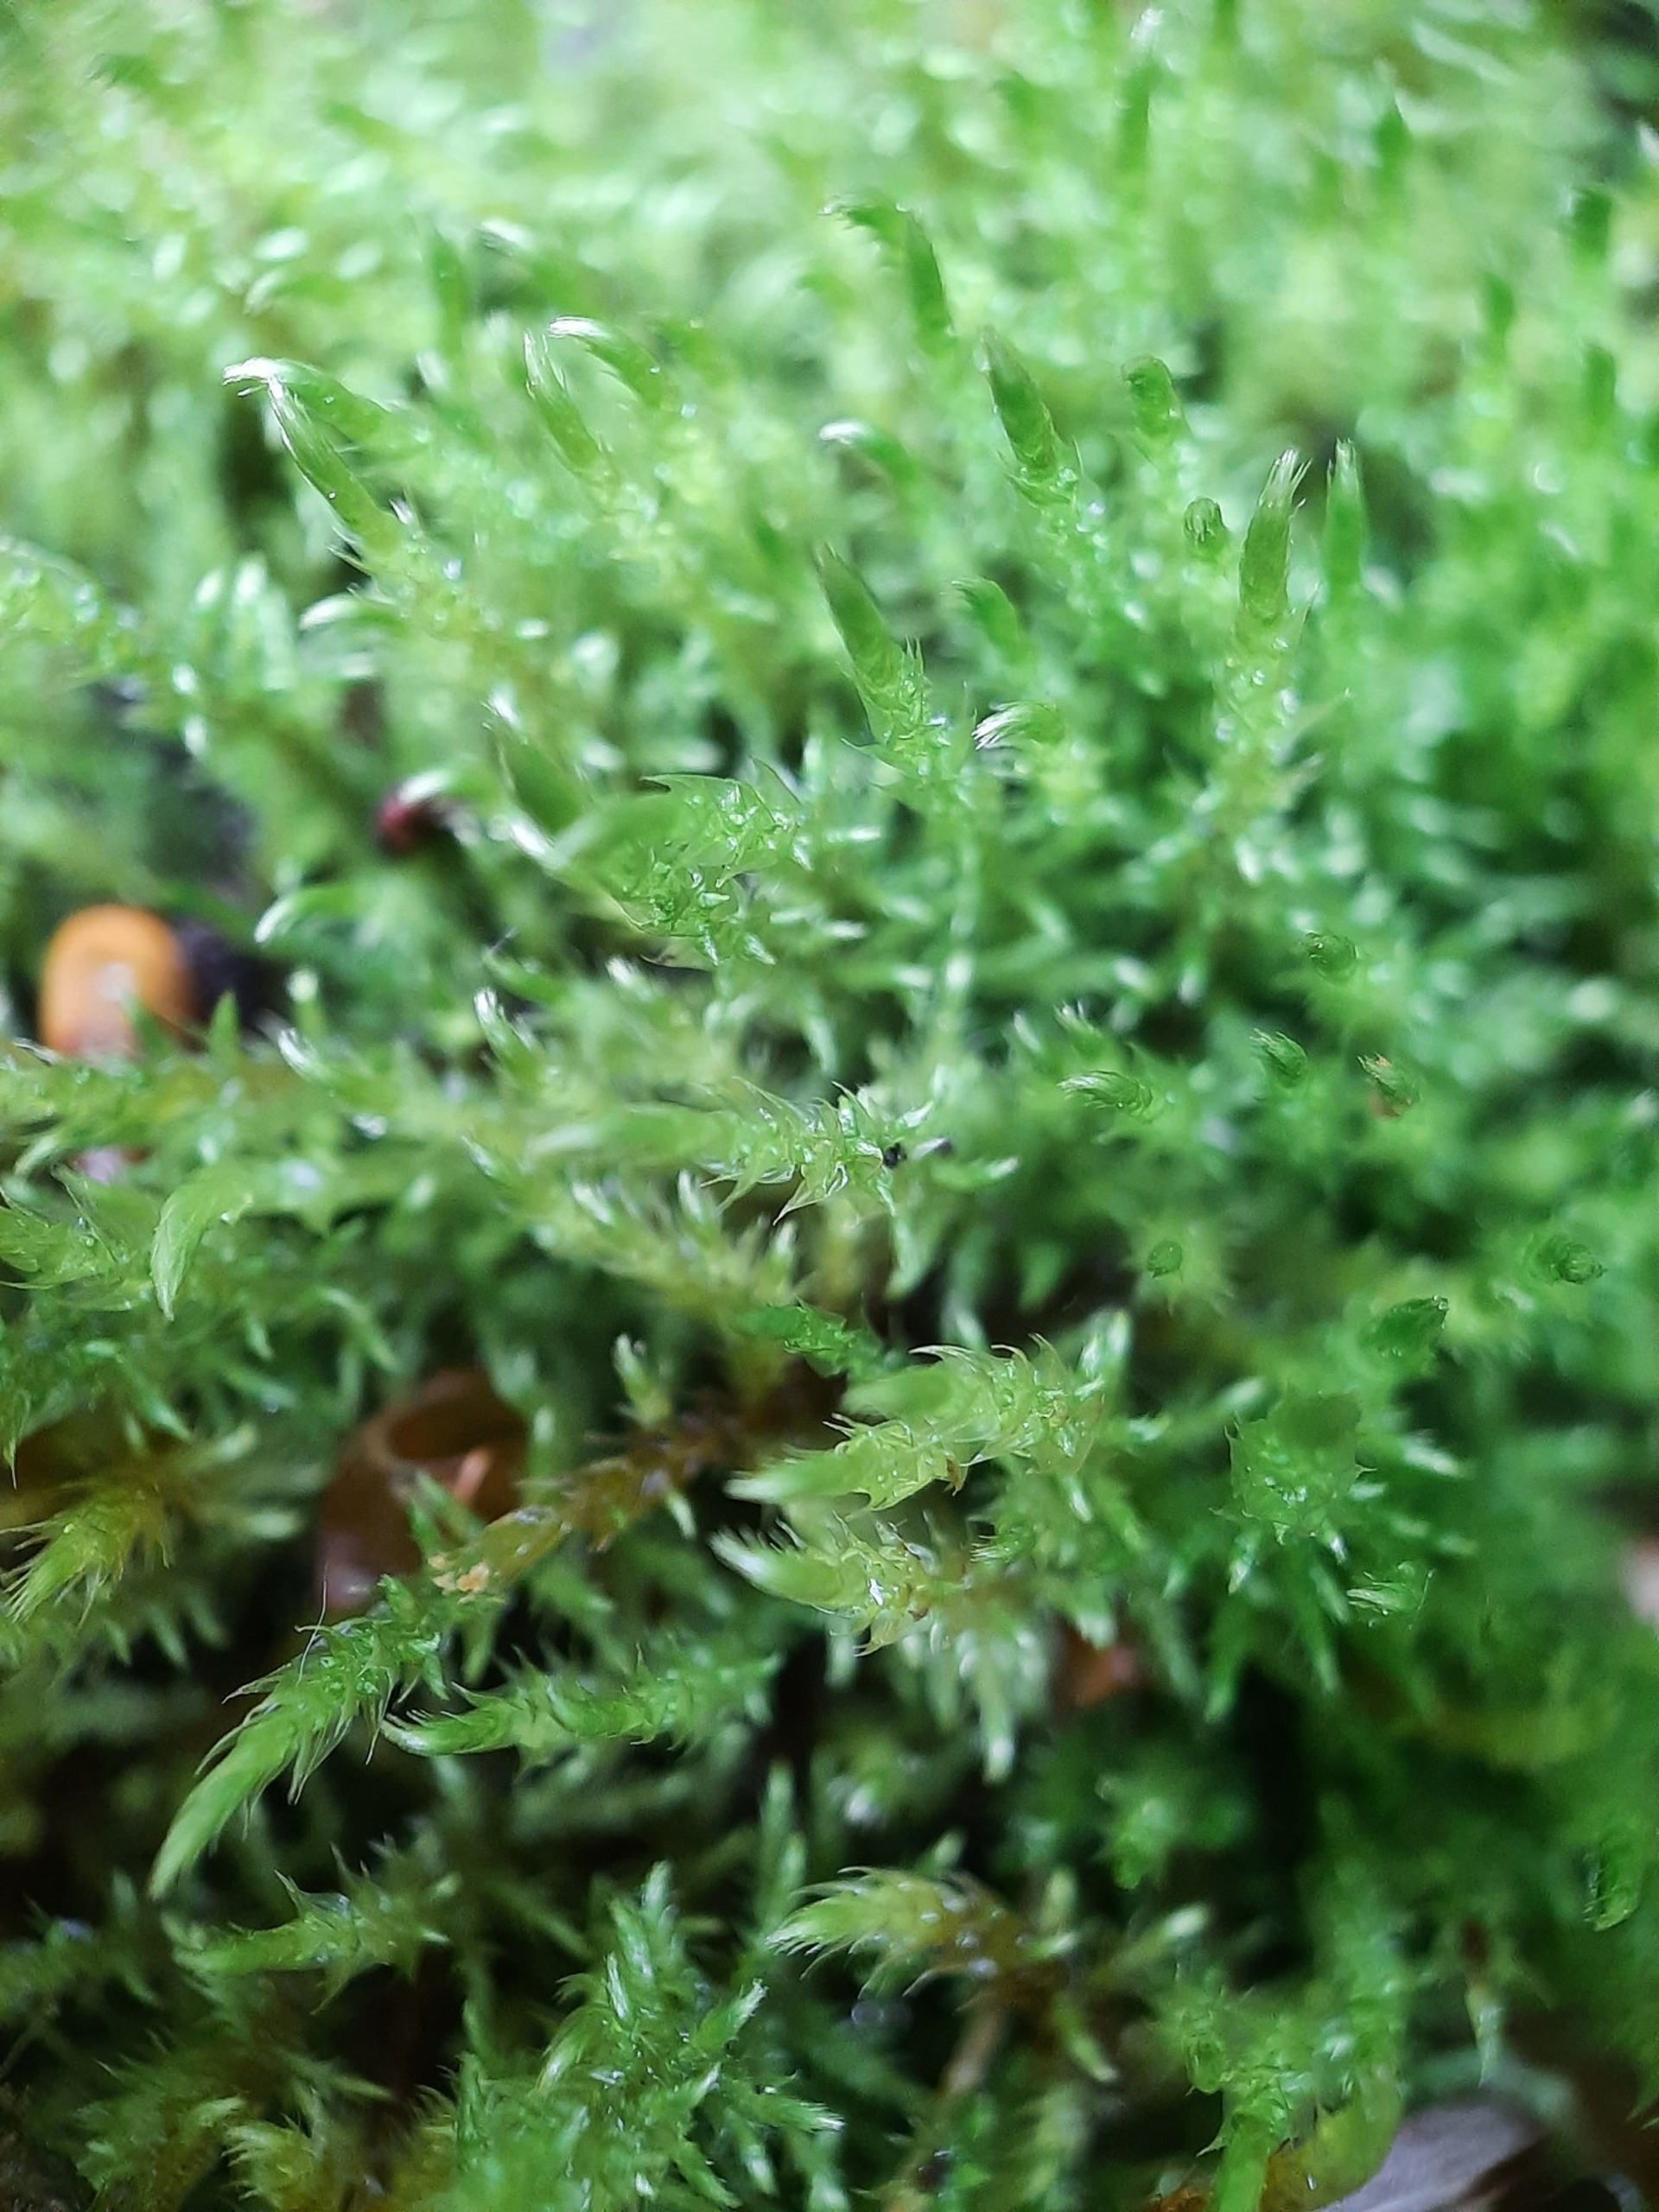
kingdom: Plantae
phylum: Bryophyta
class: Bryopsida
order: Hypnales
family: Amblystegiaceae
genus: Cratoneuron
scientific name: Cratoneuron filicinum
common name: Grøn eremitmos
